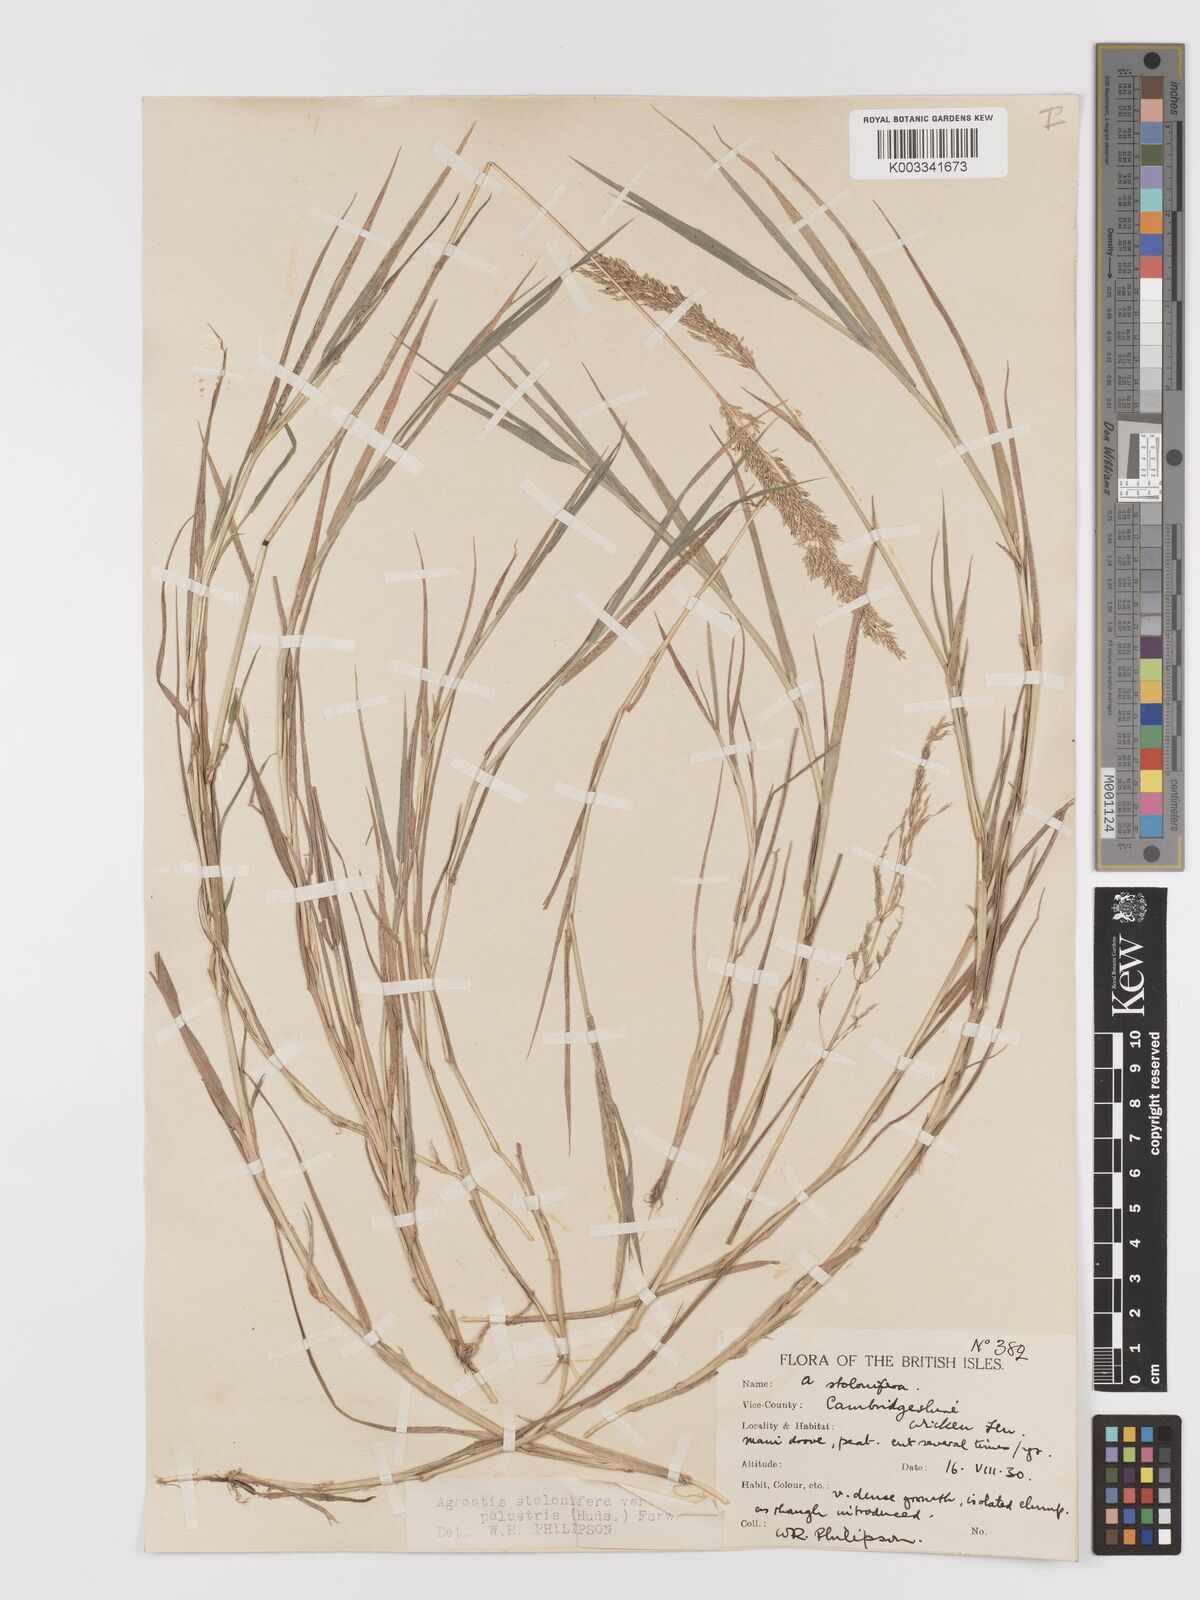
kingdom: Plantae
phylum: Tracheophyta
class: Liliopsida
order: Poales
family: Poaceae
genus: Agrostis
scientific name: Agrostis stolonifera
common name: Creeping bentgrass
